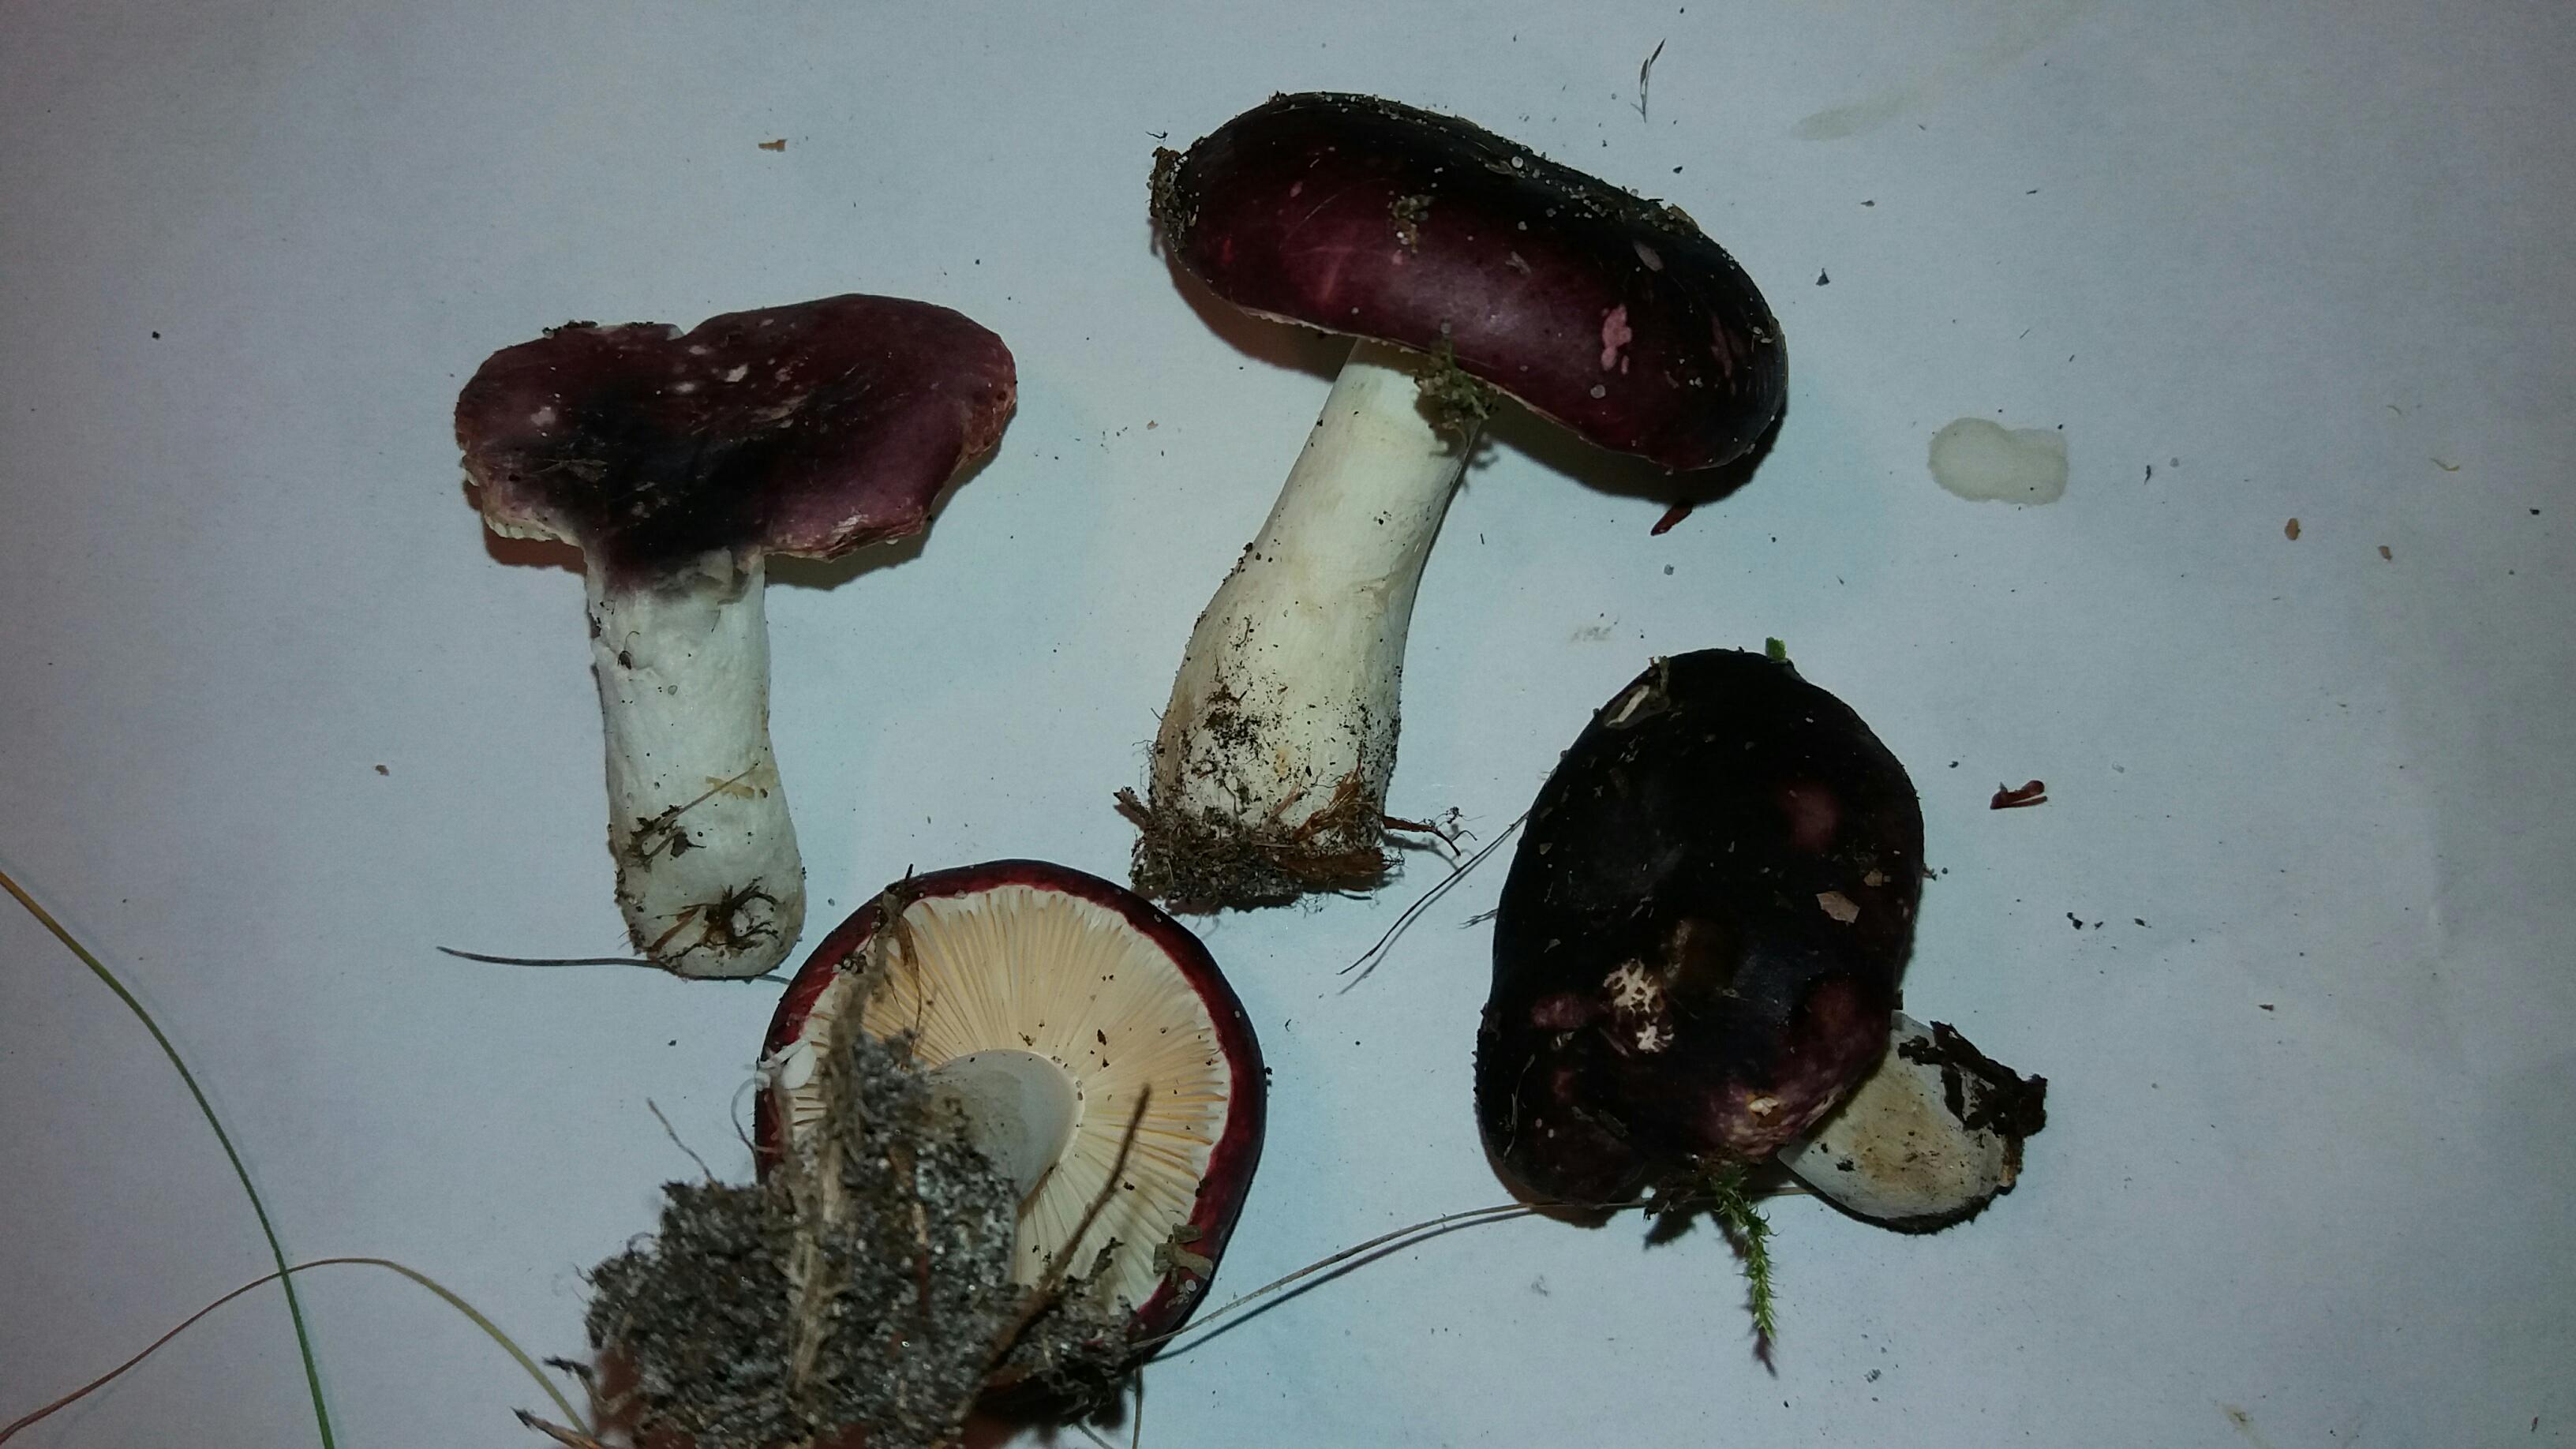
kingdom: Fungi
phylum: Basidiomycota
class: Agaricomycetes
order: Russulales
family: Russulaceae
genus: Russula
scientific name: Russula fragilis
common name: savbladet skørhat
